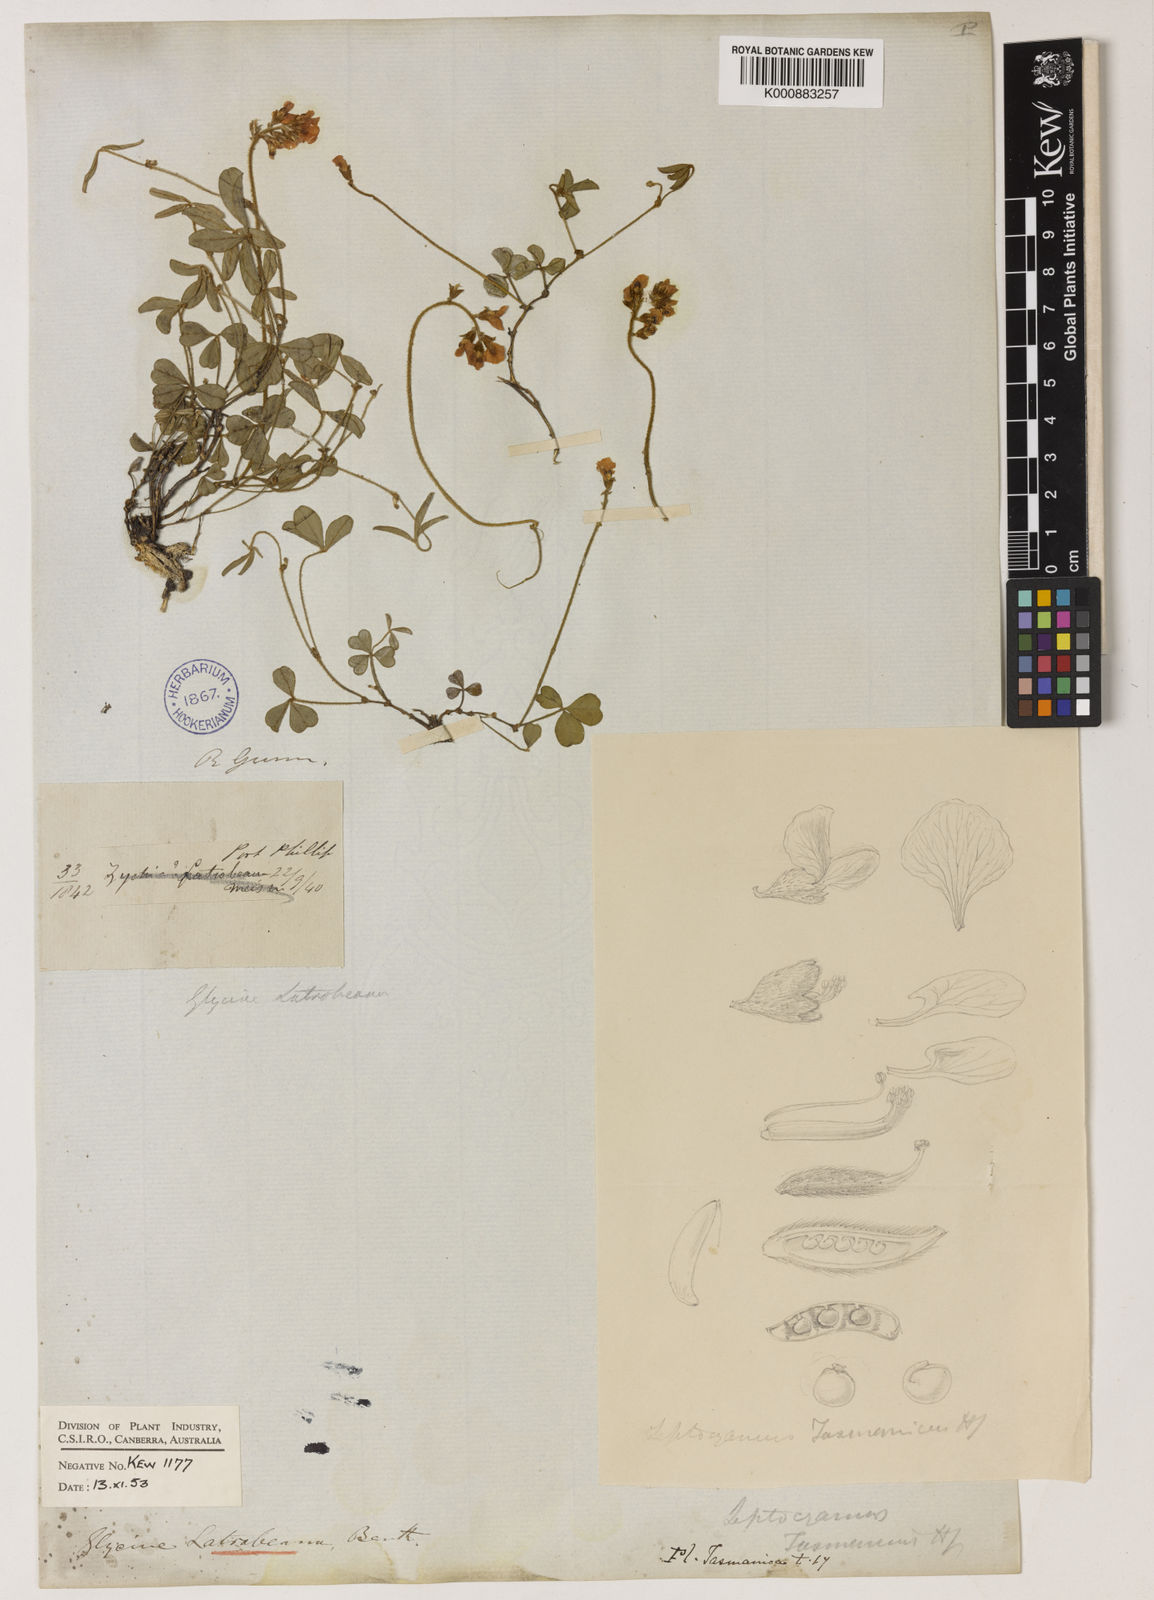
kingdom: Plantae
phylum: Tracheophyta
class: Magnoliopsida
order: Fabales
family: Fabaceae
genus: Glycine
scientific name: Glycine latrobeana
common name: Clover glycine
